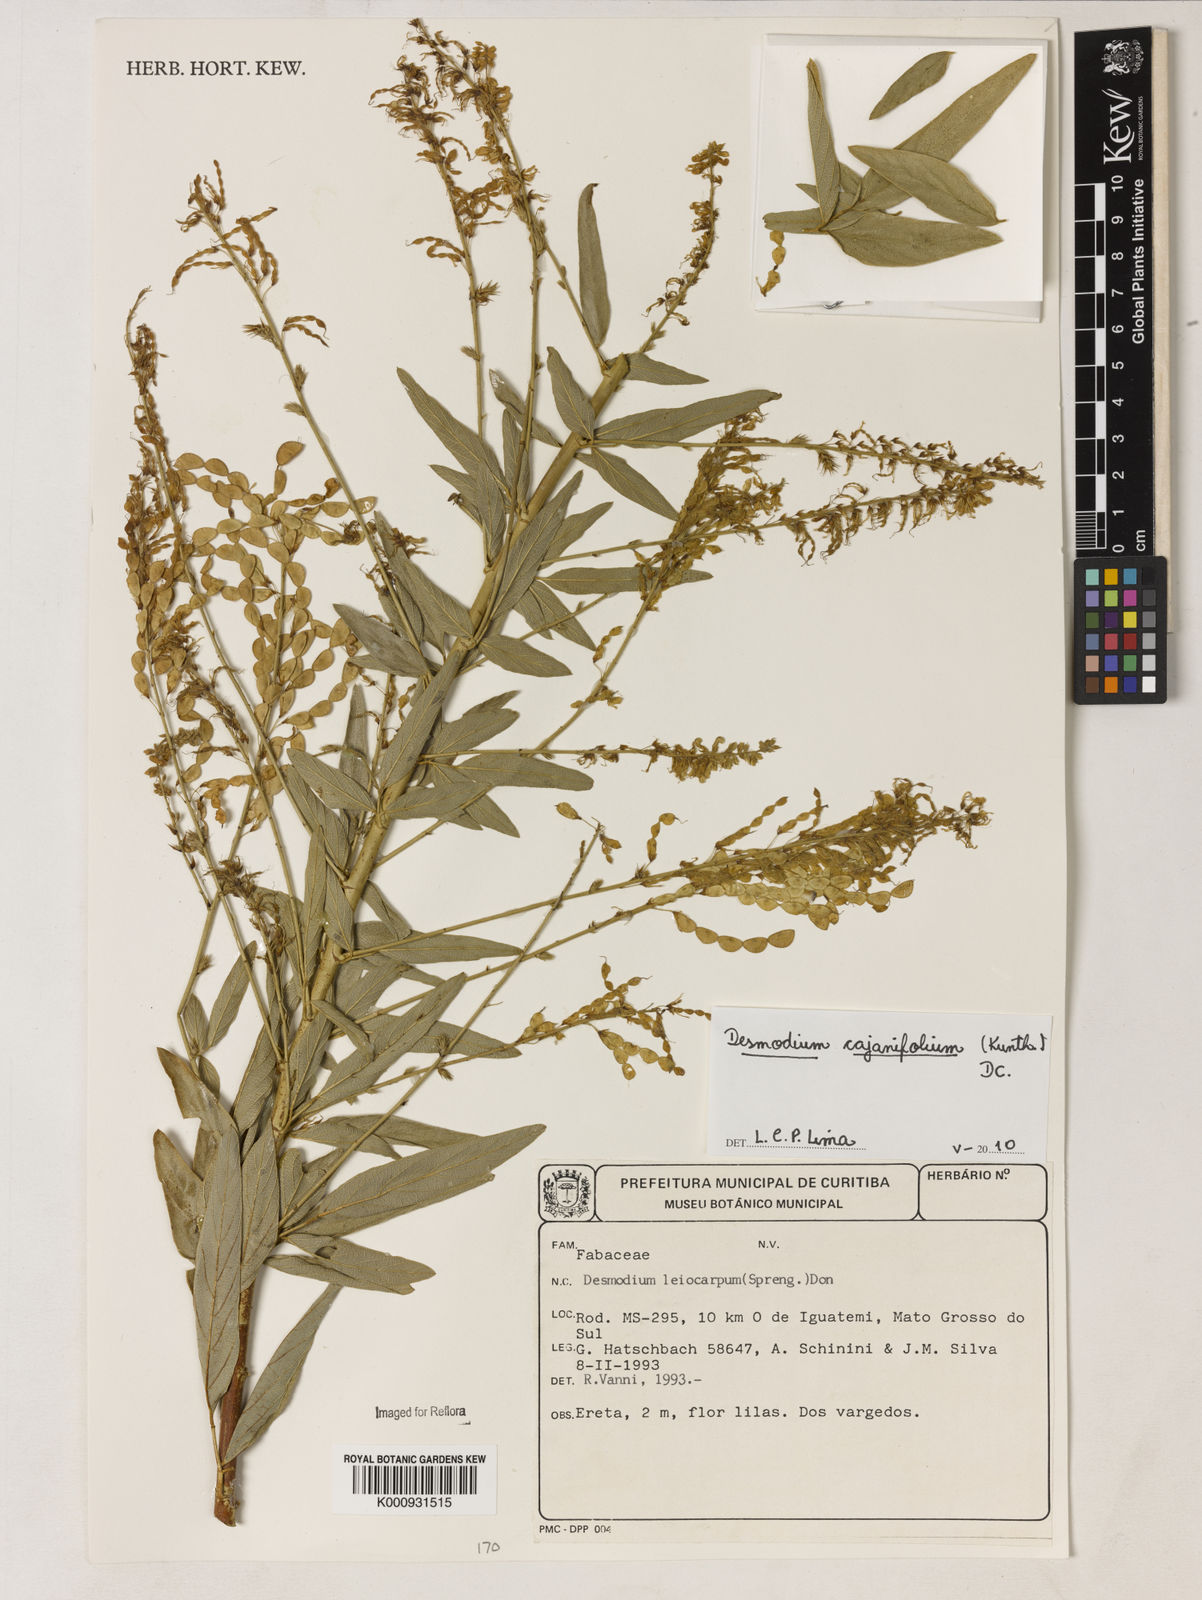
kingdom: Plantae
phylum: Tracheophyta
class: Magnoliopsida
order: Fabales
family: Fabaceae
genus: Desmodium
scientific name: Desmodium cajanifolium
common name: Tropical ticktrefoil
